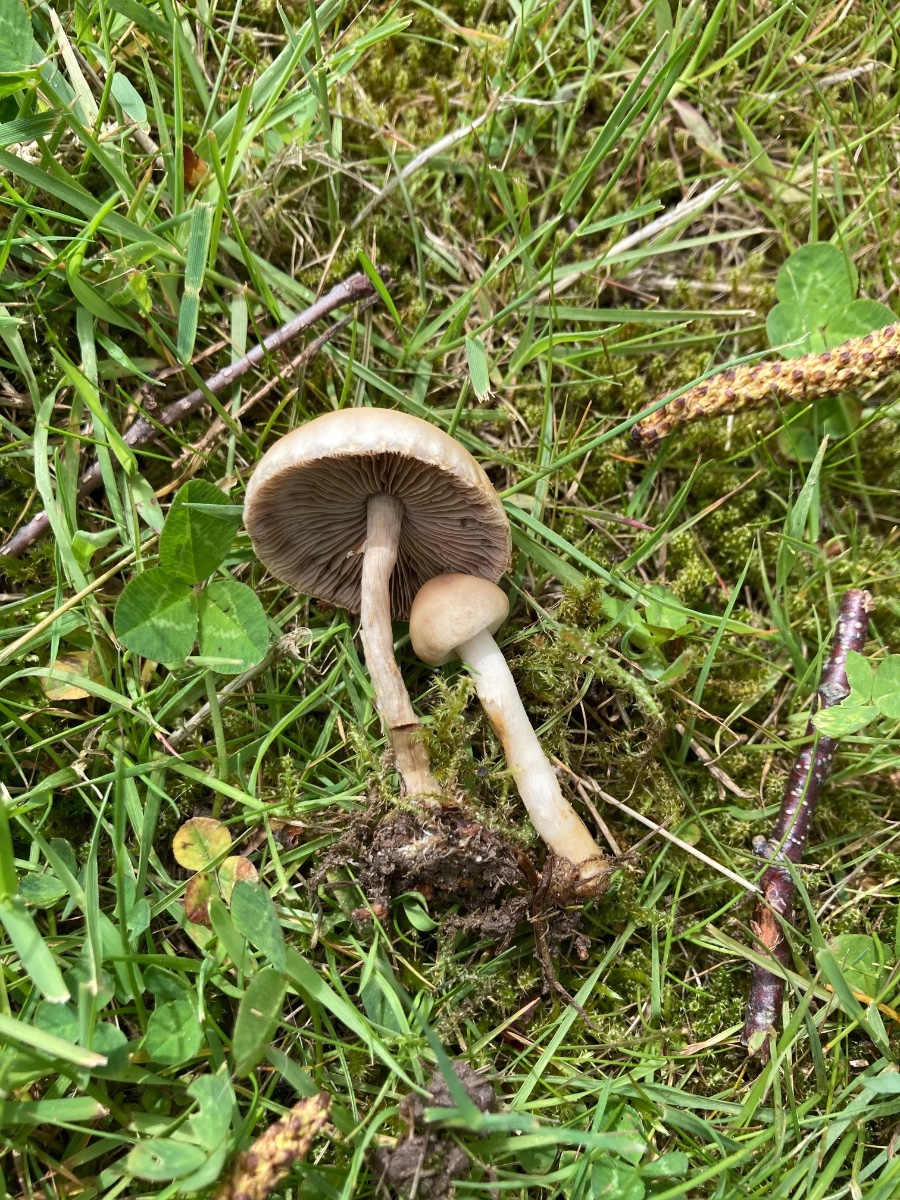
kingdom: Fungi
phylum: Basidiomycota
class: Agaricomycetes
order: Agaricales
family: Strophariaceae
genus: Agrocybe
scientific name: Agrocybe praecox
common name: tidlig agerhat
